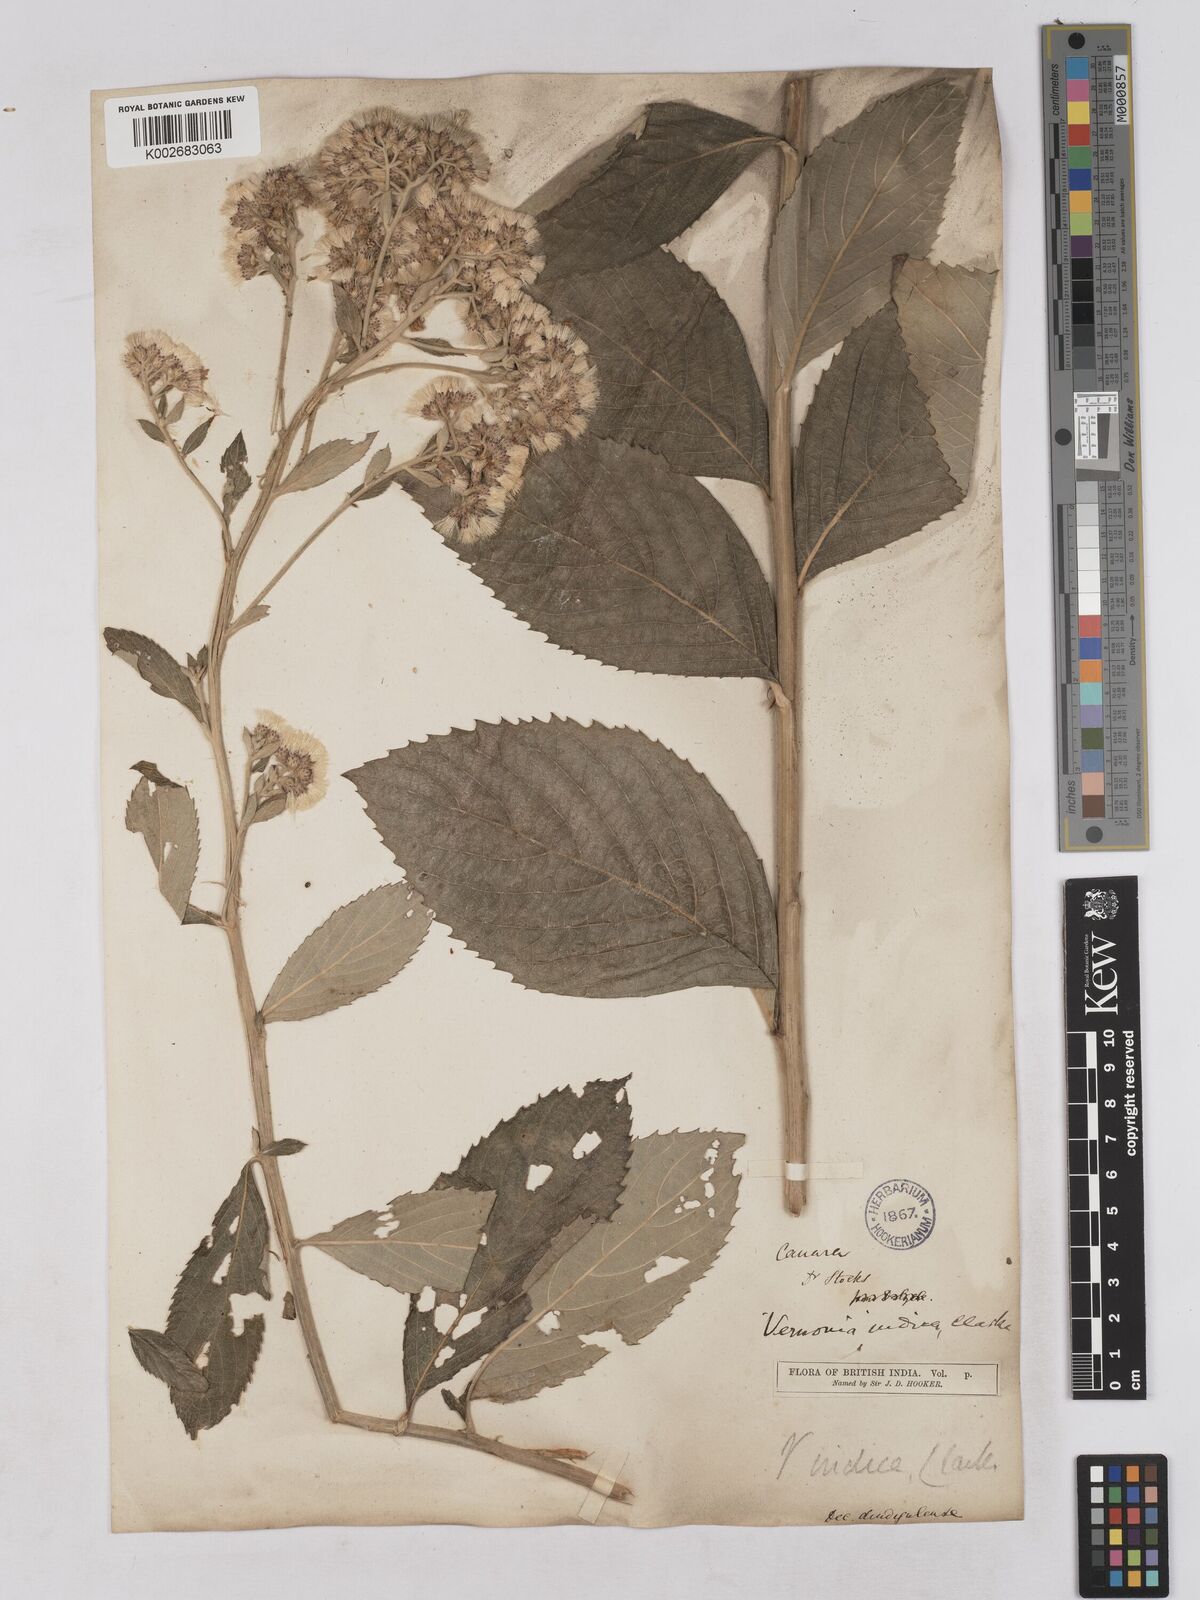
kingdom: Plantae
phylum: Tracheophyta
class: Magnoliopsida
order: Asterales
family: Asteraceae
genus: Acilepis
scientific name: Acilepis dendigulensis
